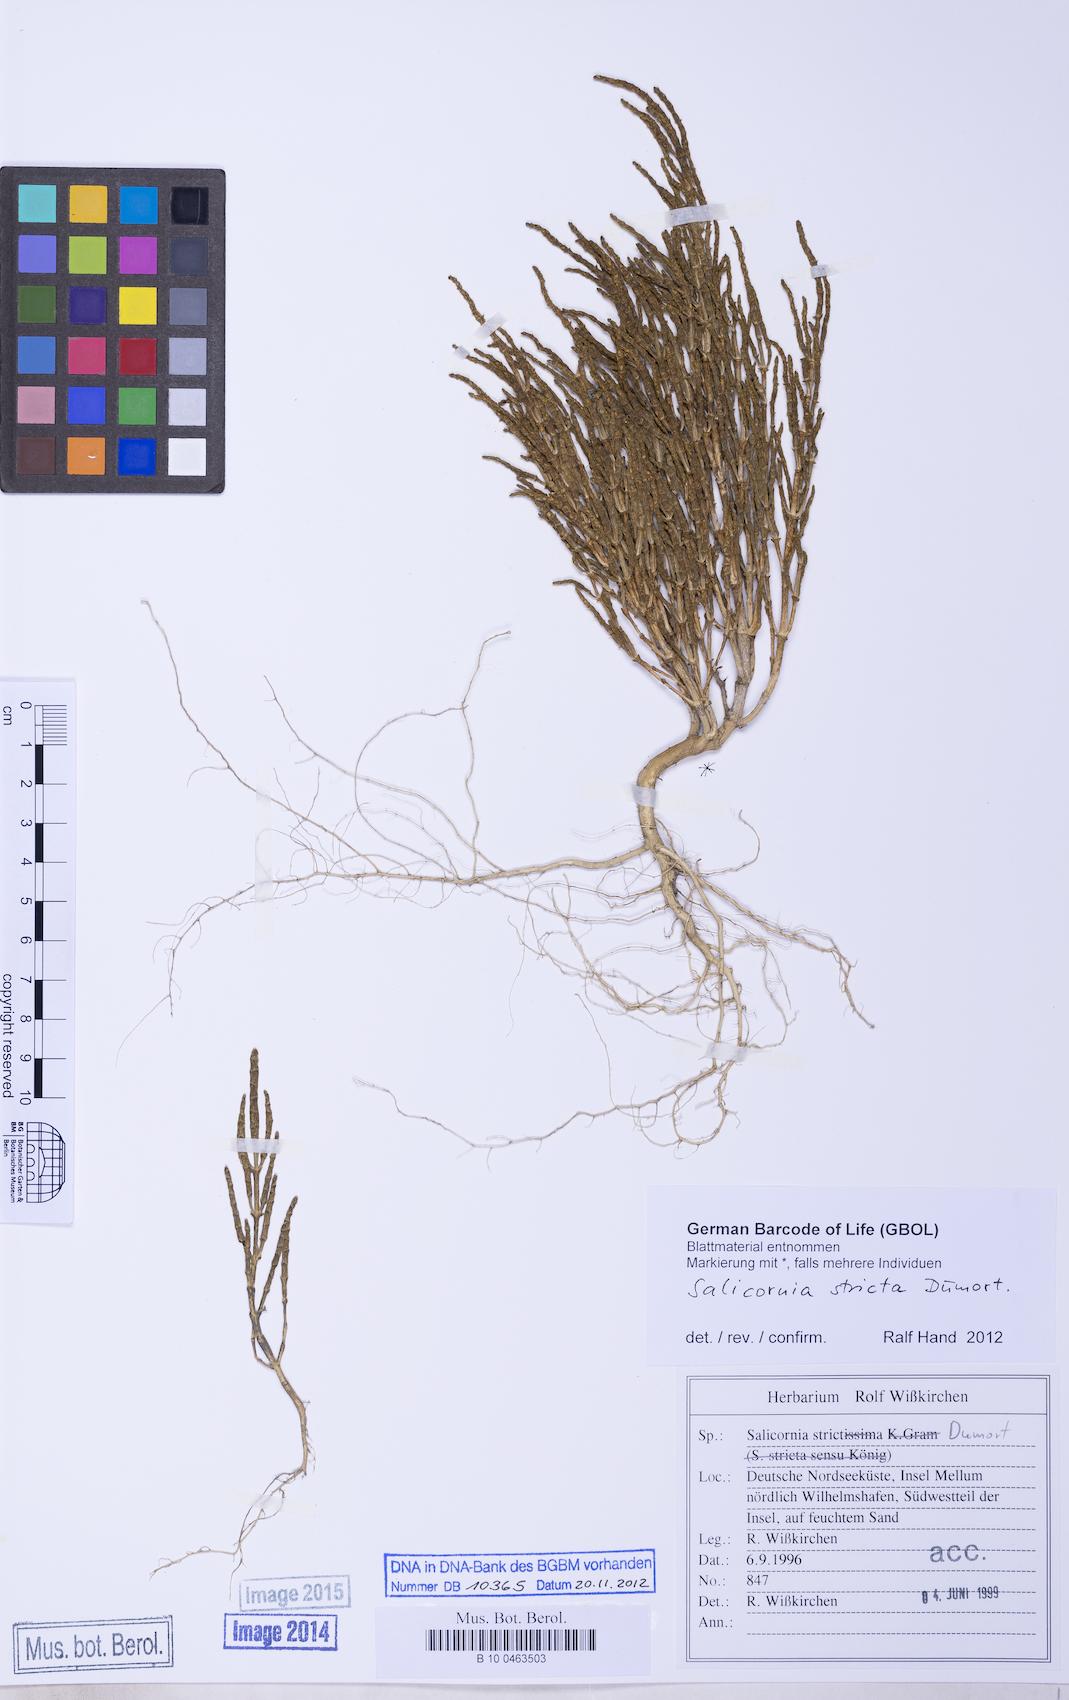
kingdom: Plantae
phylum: Tracheophyta
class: Magnoliopsida
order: Caryophyllales
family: Amaranthaceae
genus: Salicornia
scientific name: Salicornia procumbens
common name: Long-spiked glasswort
